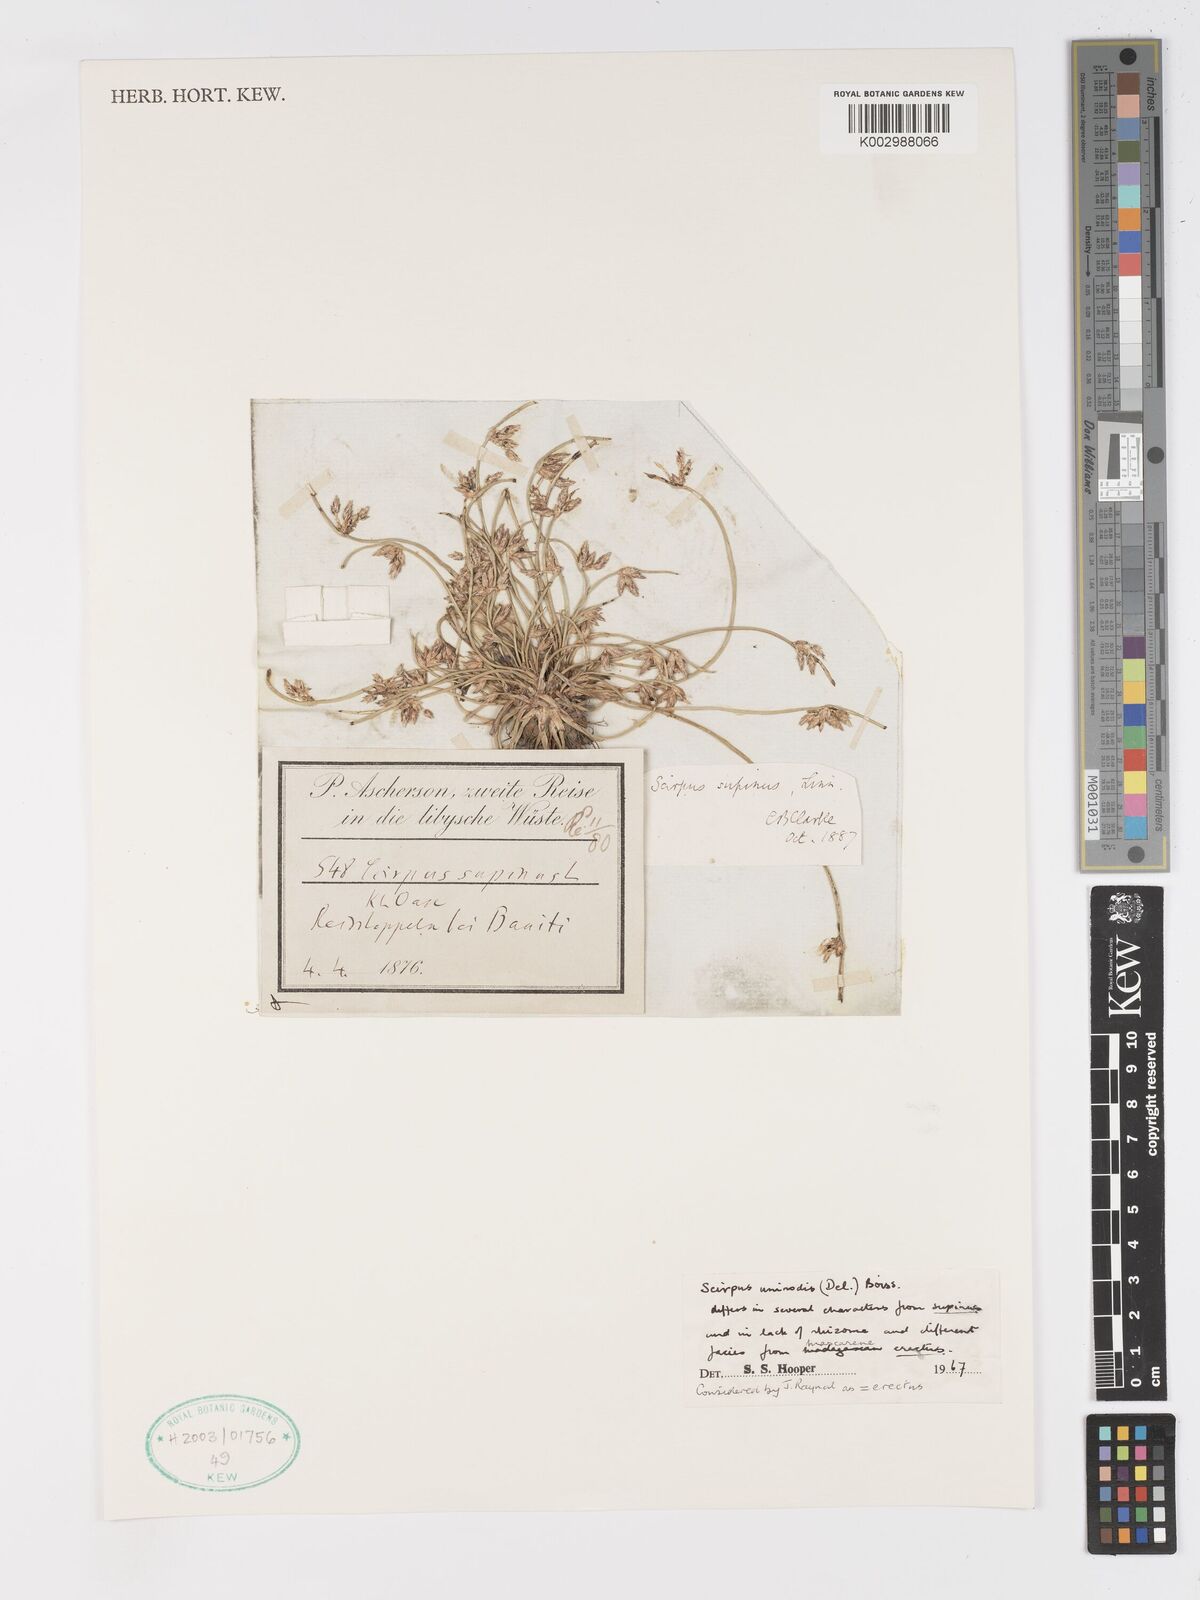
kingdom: Plantae
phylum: Tracheophyta
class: Liliopsida
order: Poales
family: Cyperaceae
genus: Schoenoplectus
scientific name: Schoenoplectus
